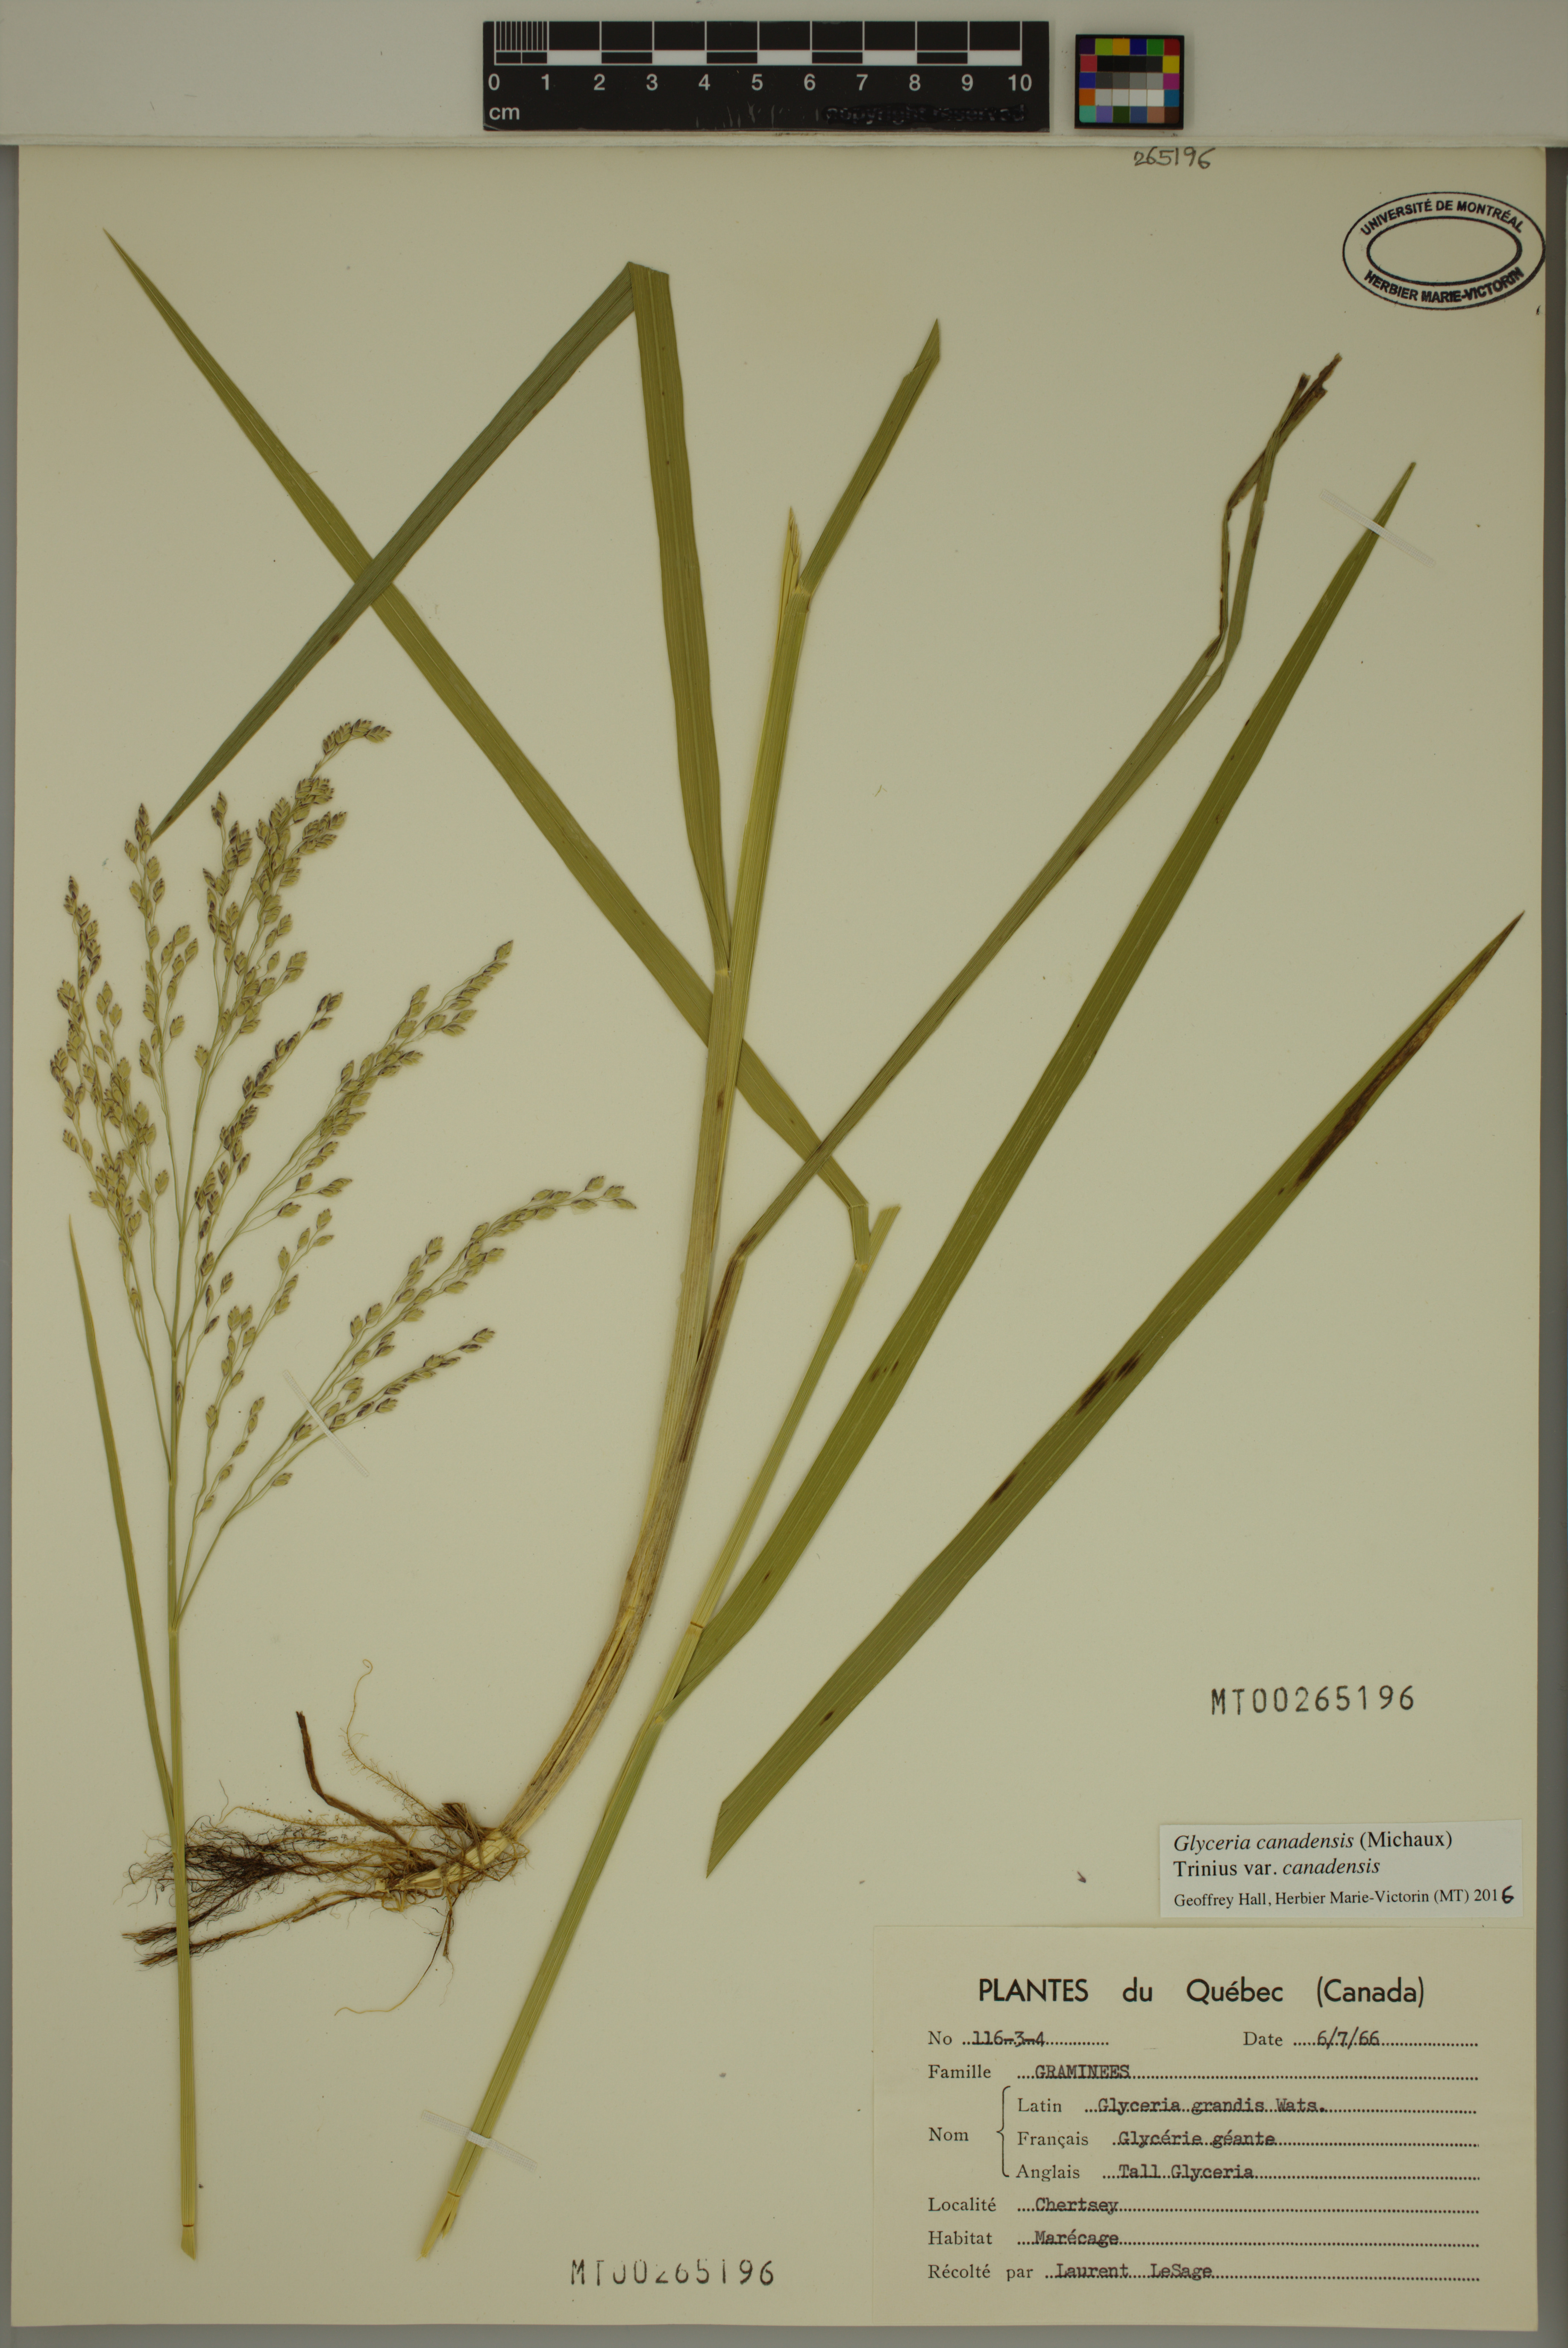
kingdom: Plantae
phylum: Tracheophyta
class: Liliopsida
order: Poales
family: Poaceae
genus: Glyceria
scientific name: Glyceria canadensis
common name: Canada mannagrass
